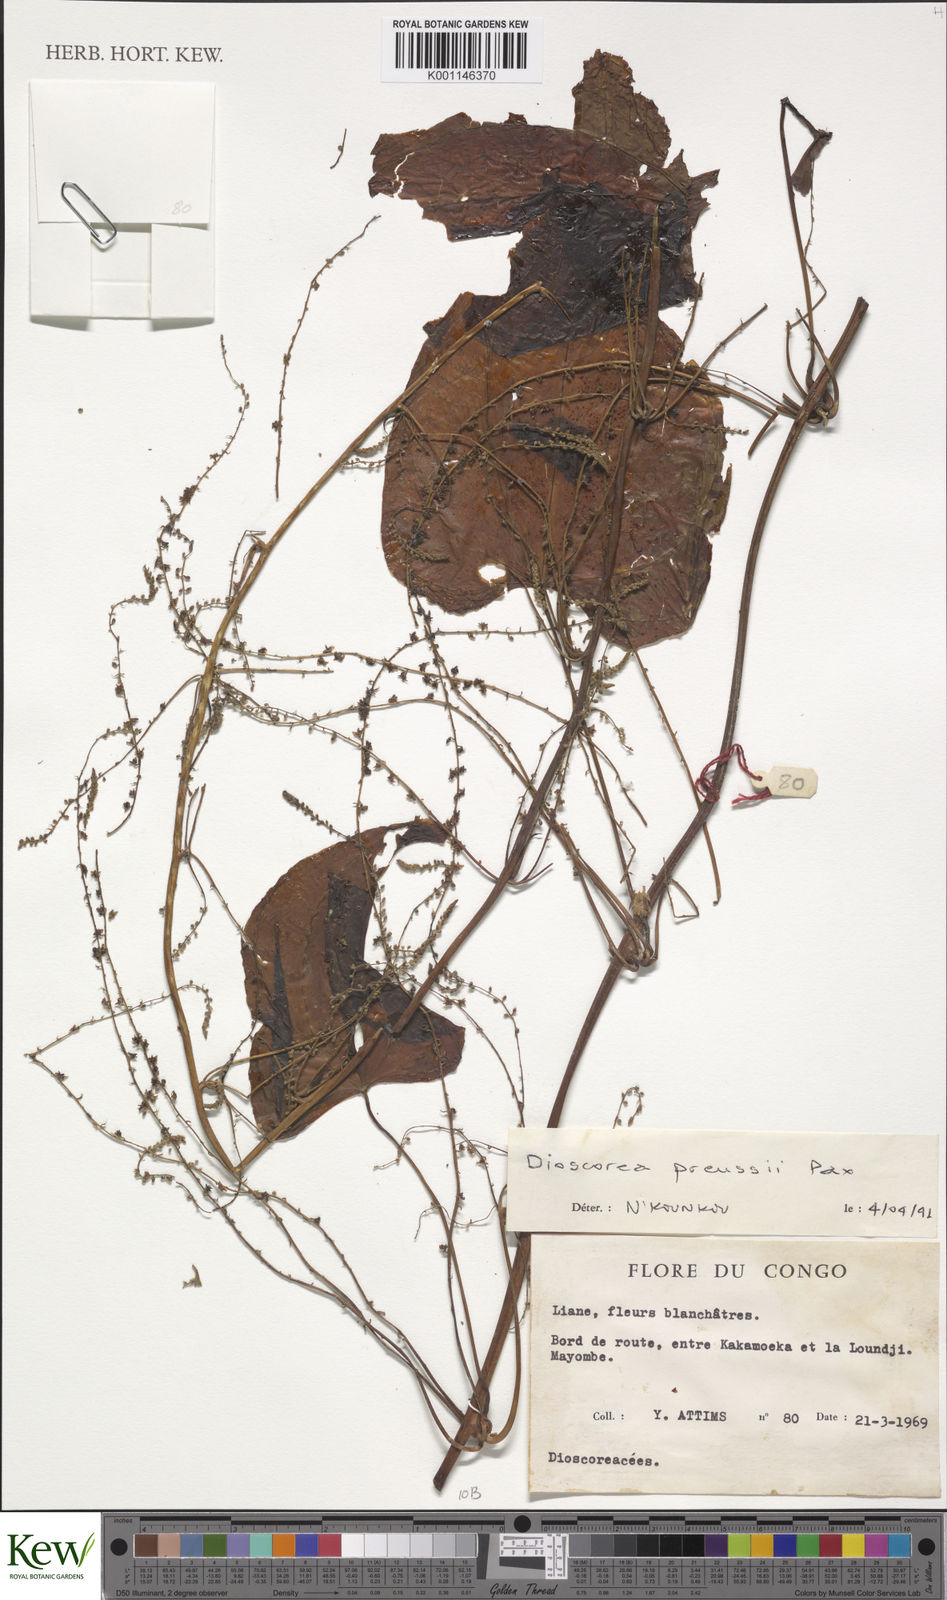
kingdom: Plantae
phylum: Tracheophyta
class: Liliopsida
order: Dioscoreales
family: Dioscoreaceae
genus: Dioscorea
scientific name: Dioscorea preussii
